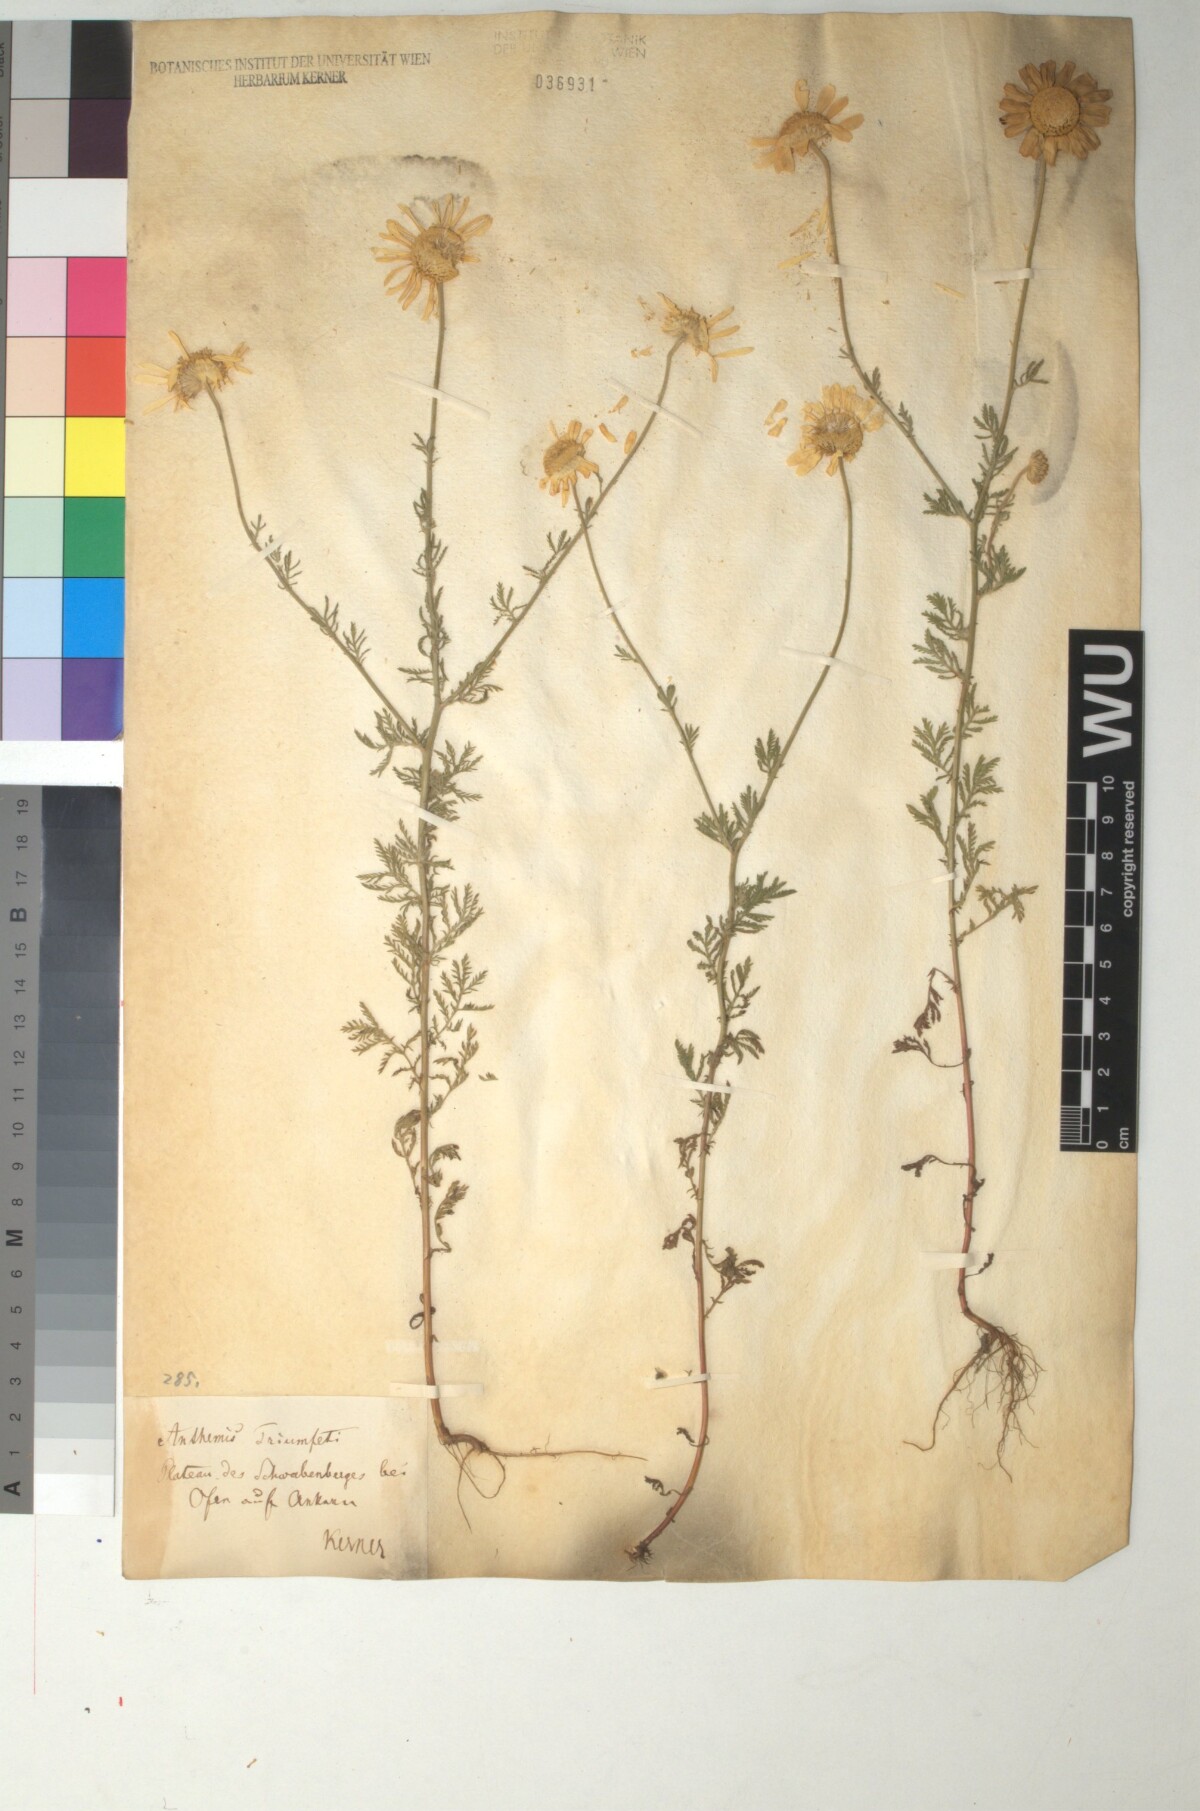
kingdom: Plantae
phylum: Tracheophyta
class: Magnoliopsida
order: Asterales
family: Asteraceae
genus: Cota
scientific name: Cota triumfetti
